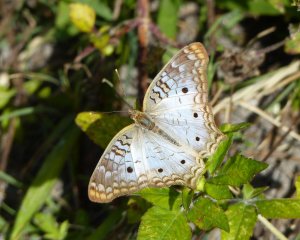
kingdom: Animalia
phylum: Arthropoda
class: Insecta
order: Lepidoptera
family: Nymphalidae
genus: Anartia
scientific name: Anartia jatrophae
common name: White Peacock
